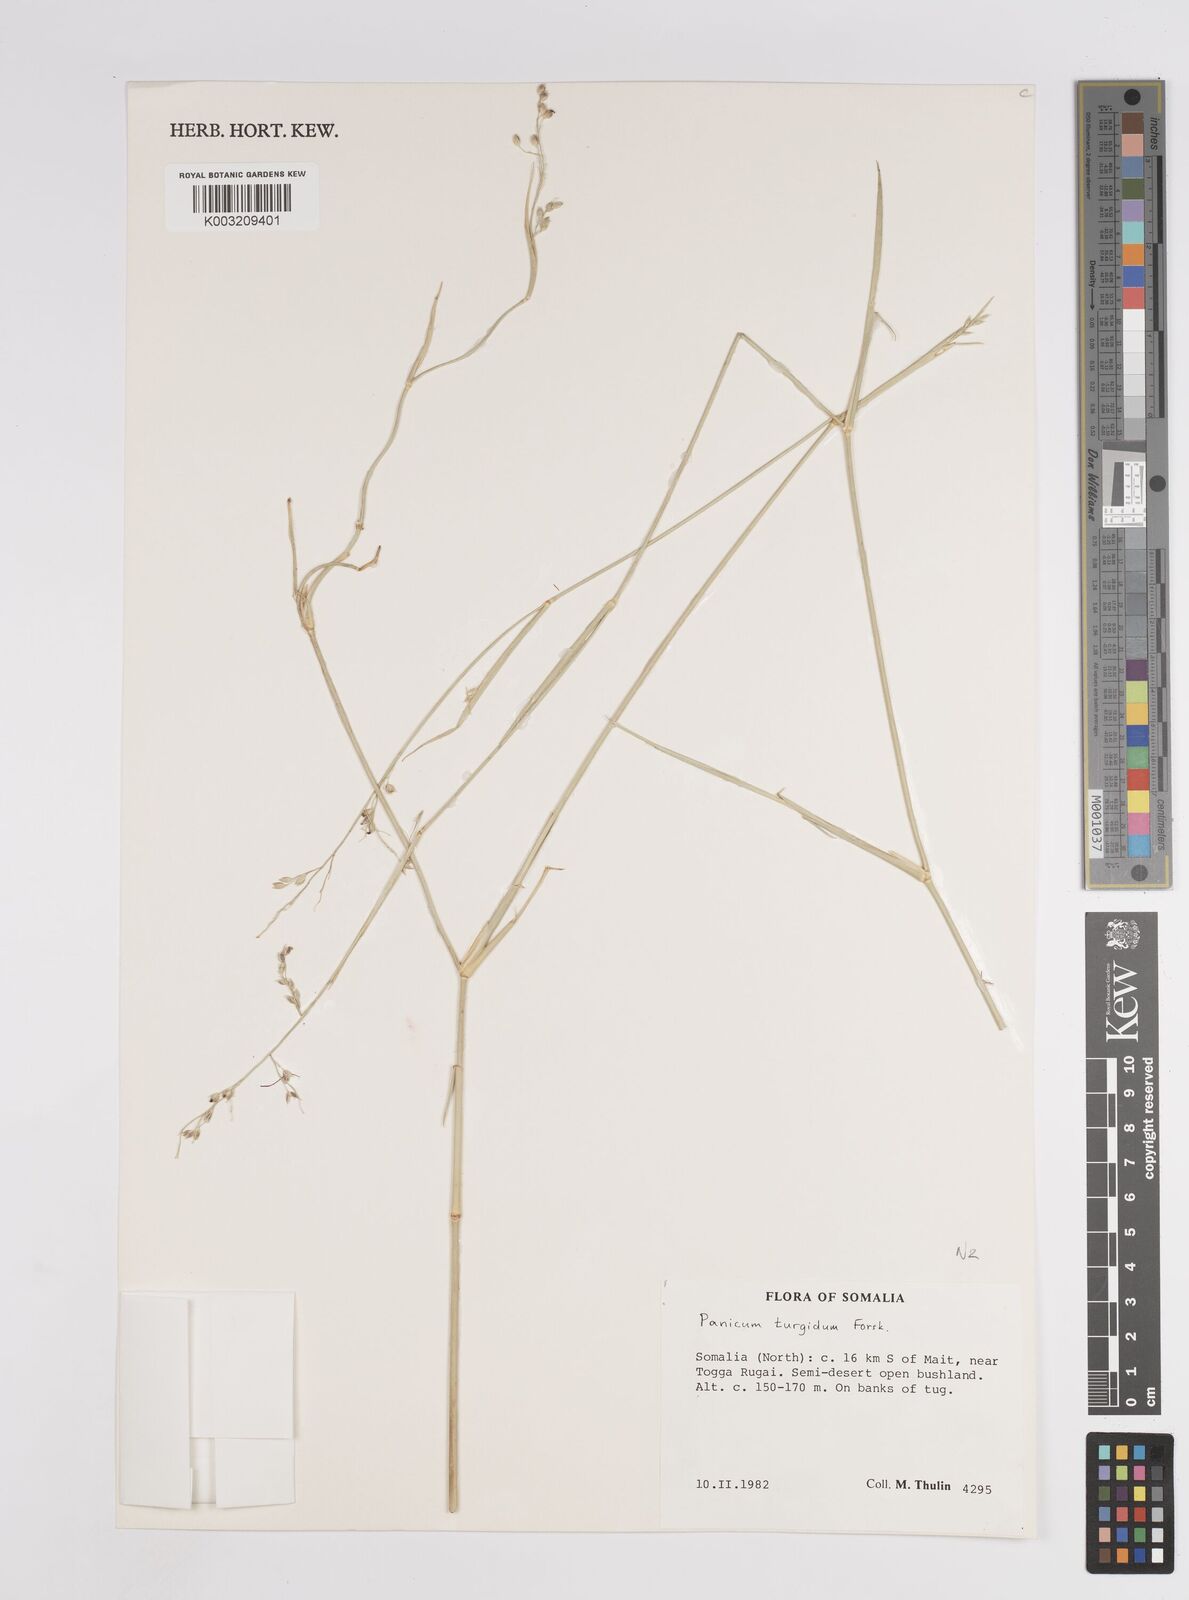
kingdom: Plantae
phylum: Tracheophyta
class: Liliopsida
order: Poales
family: Poaceae
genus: Panicum
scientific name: Panicum turgidum
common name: Desert grass
